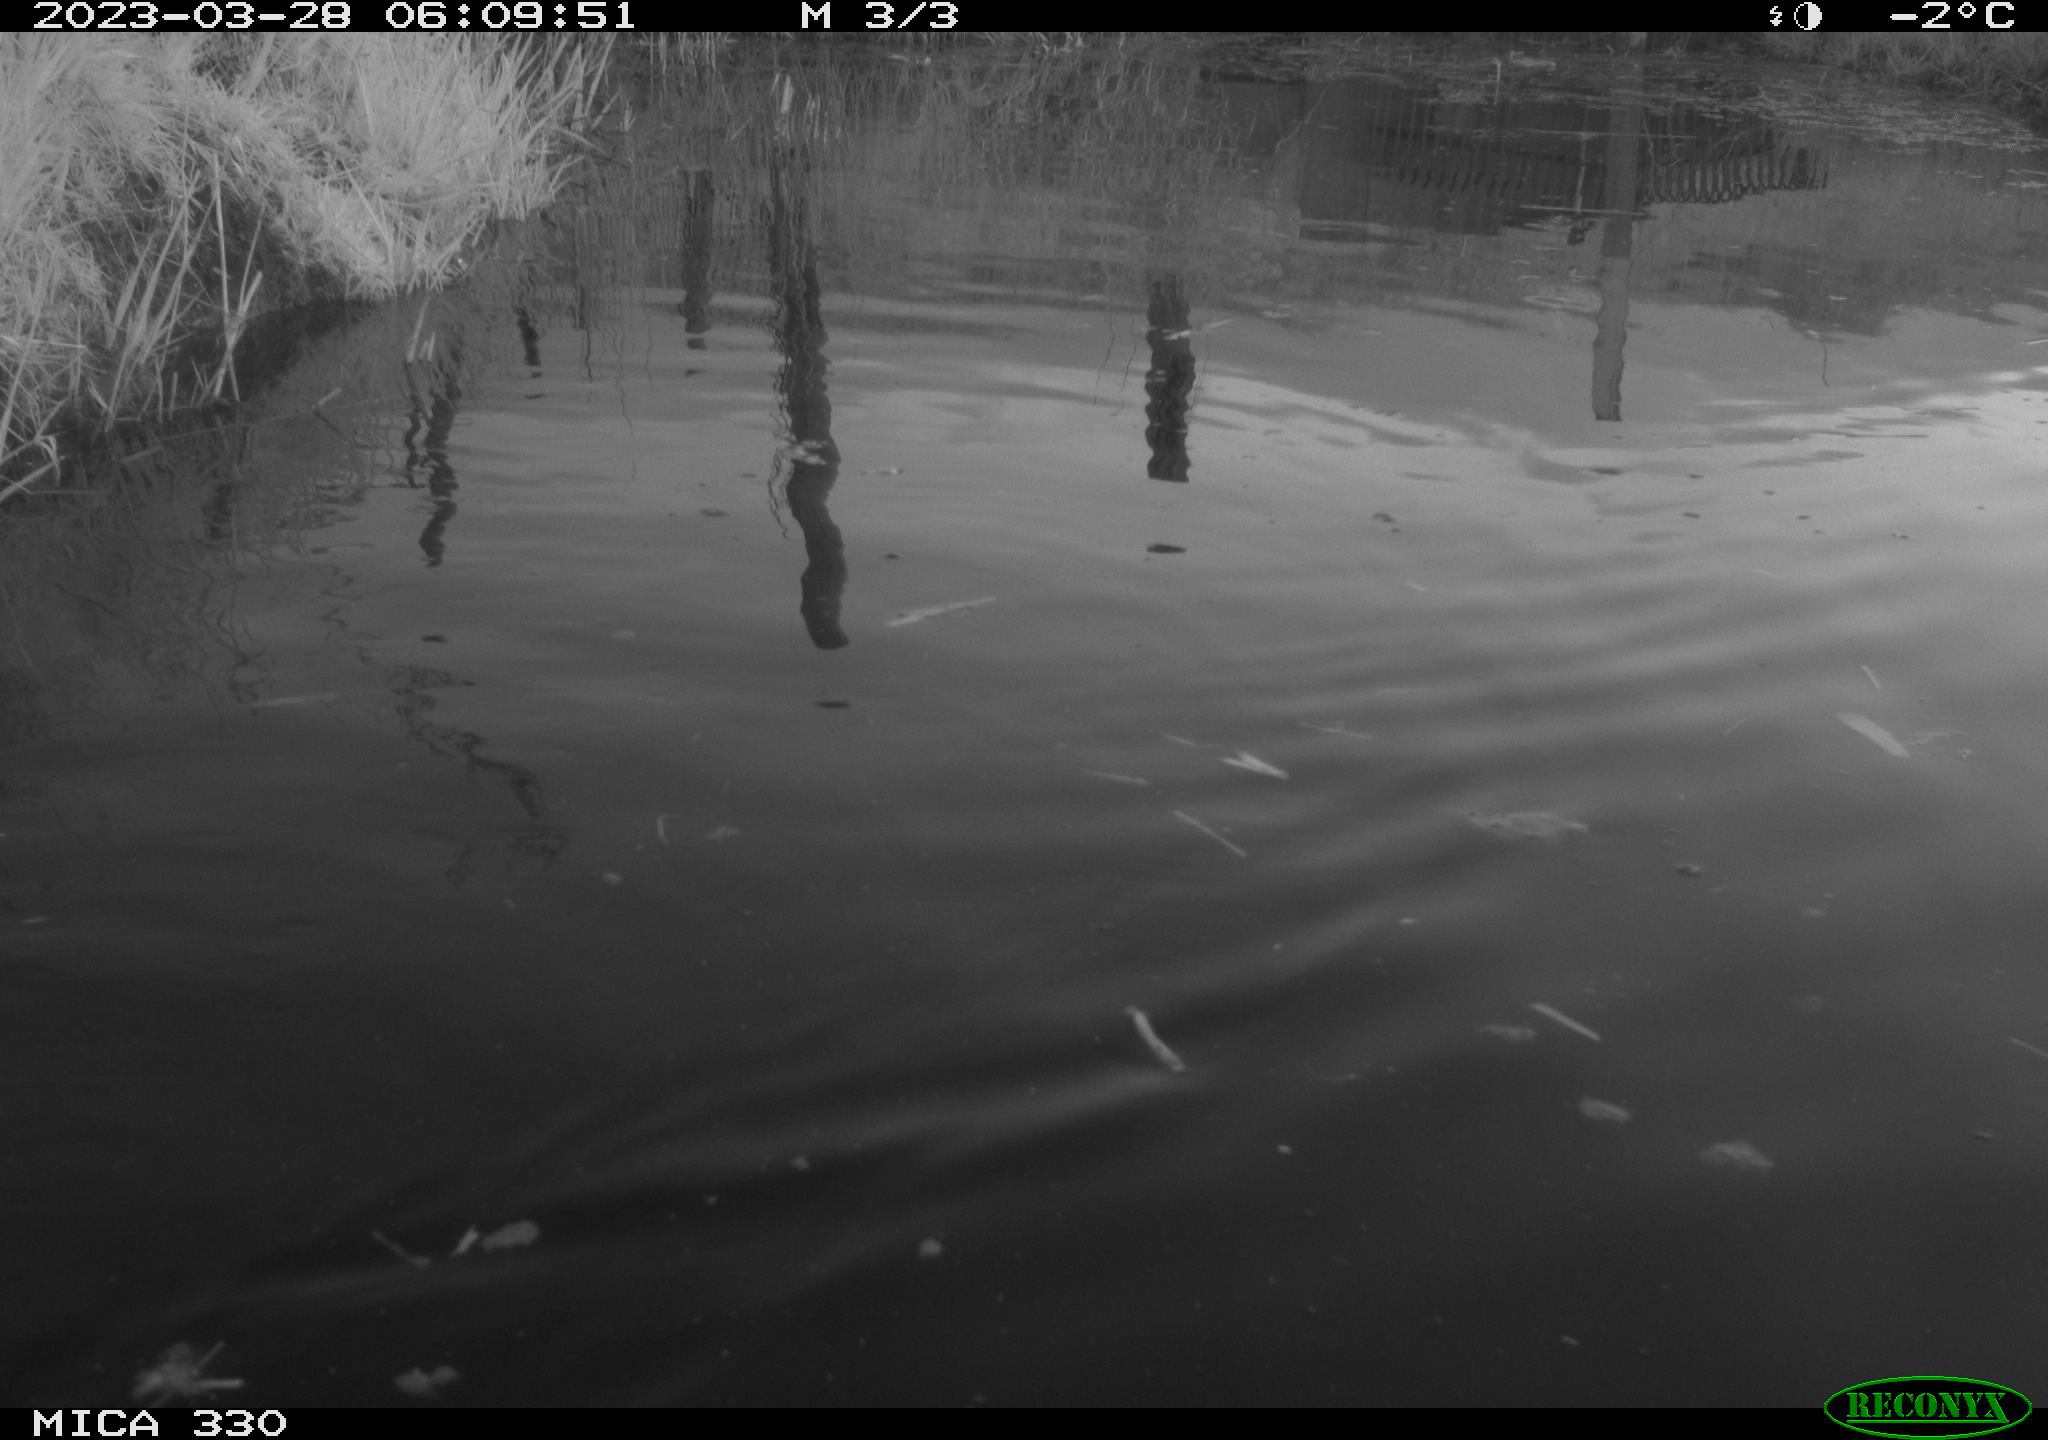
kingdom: Animalia
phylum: Chordata
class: Aves
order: Gruiformes
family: Rallidae
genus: Gallinula
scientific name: Gallinula chloropus
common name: Common moorhen
